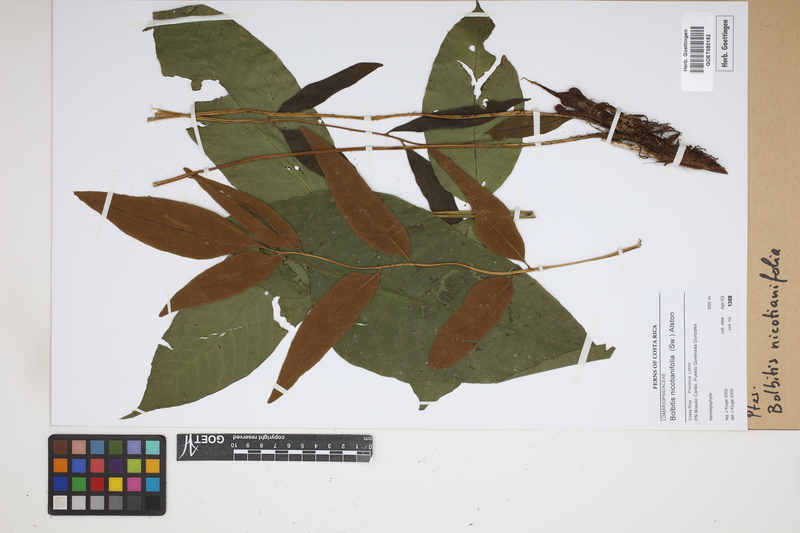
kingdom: Plantae
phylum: Tracheophyta
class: Polypodiopsida
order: Polypodiales
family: Dryopteridaceae
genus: Mickelia
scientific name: Mickelia nicotianifolia
